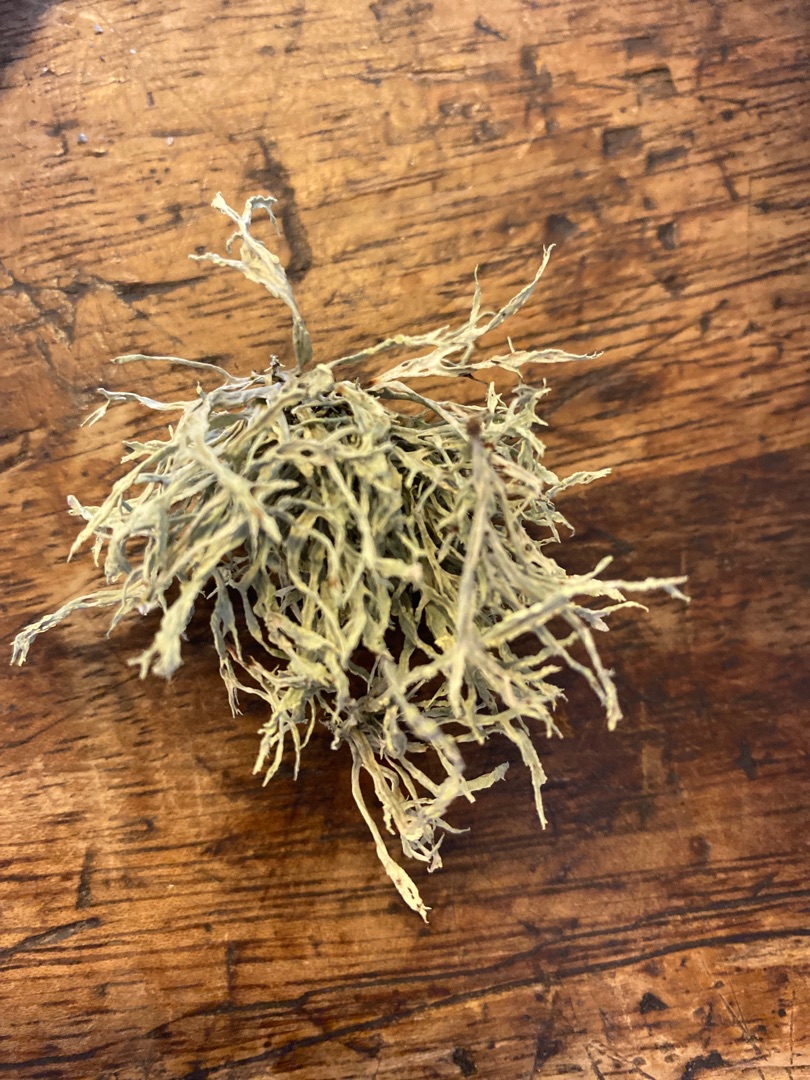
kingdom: Fungi
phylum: Ascomycota
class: Lecanoromycetes
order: Lecanorales
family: Ramalinaceae
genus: Ramalina
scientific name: Ramalina farinacea
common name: Melet grenlav
